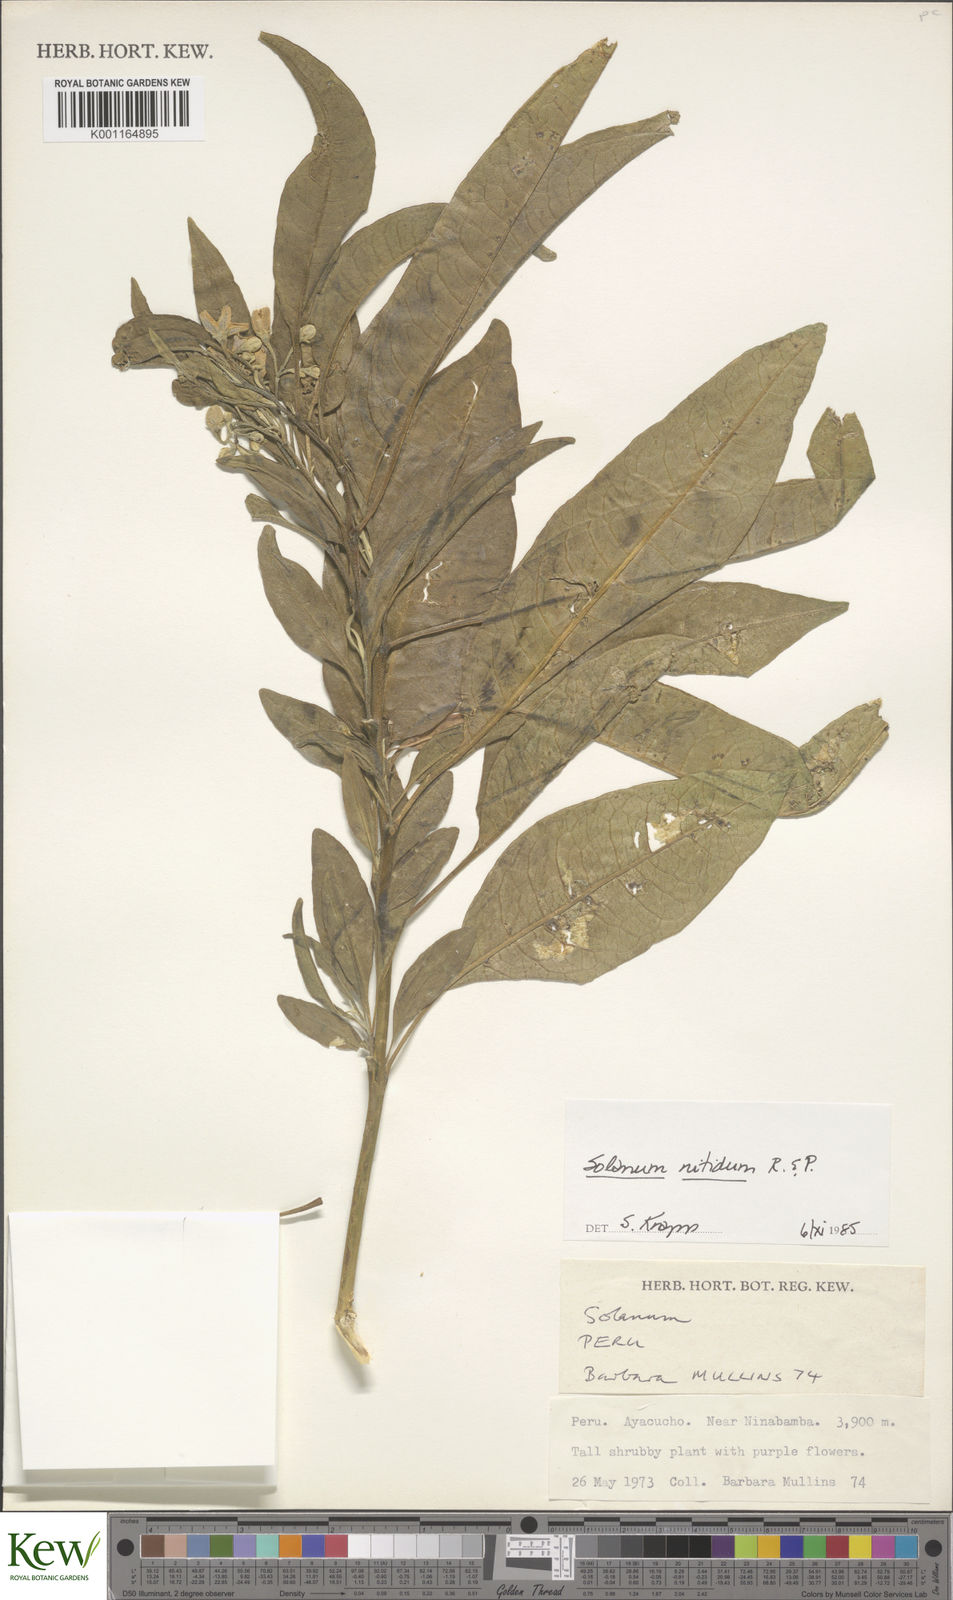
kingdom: Plantae
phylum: Tracheophyta
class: Magnoliopsida
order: Solanales
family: Solanaceae
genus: Solanum
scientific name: Solanum nitidum
